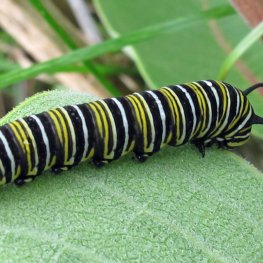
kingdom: Animalia
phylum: Arthropoda
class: Insecta
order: Lepidoptera
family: Nymphalidae
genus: Danaus
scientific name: Danaus plexippus
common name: Monarch
